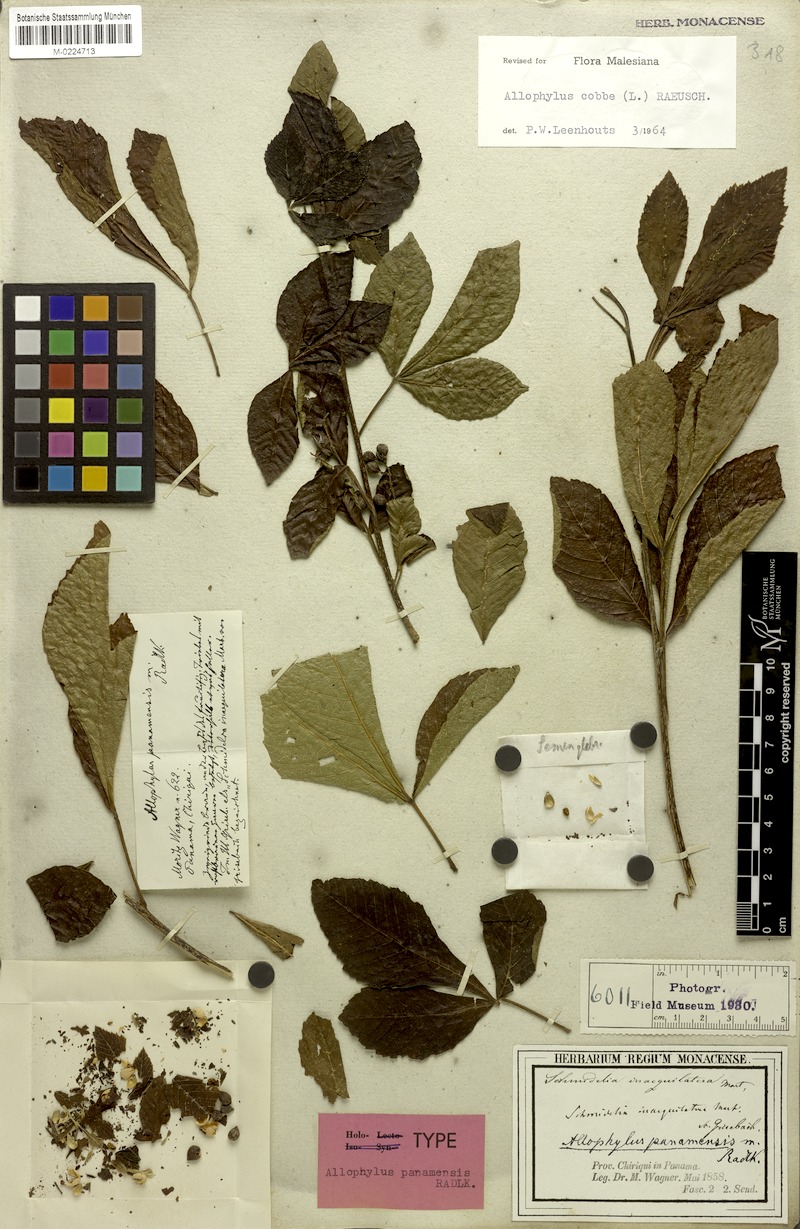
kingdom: Plantae
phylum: Tracheophyta
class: Magnoliopsida
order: Sapindales
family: Sapindaceae
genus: Allophylus
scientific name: Allophylus psilospermus
